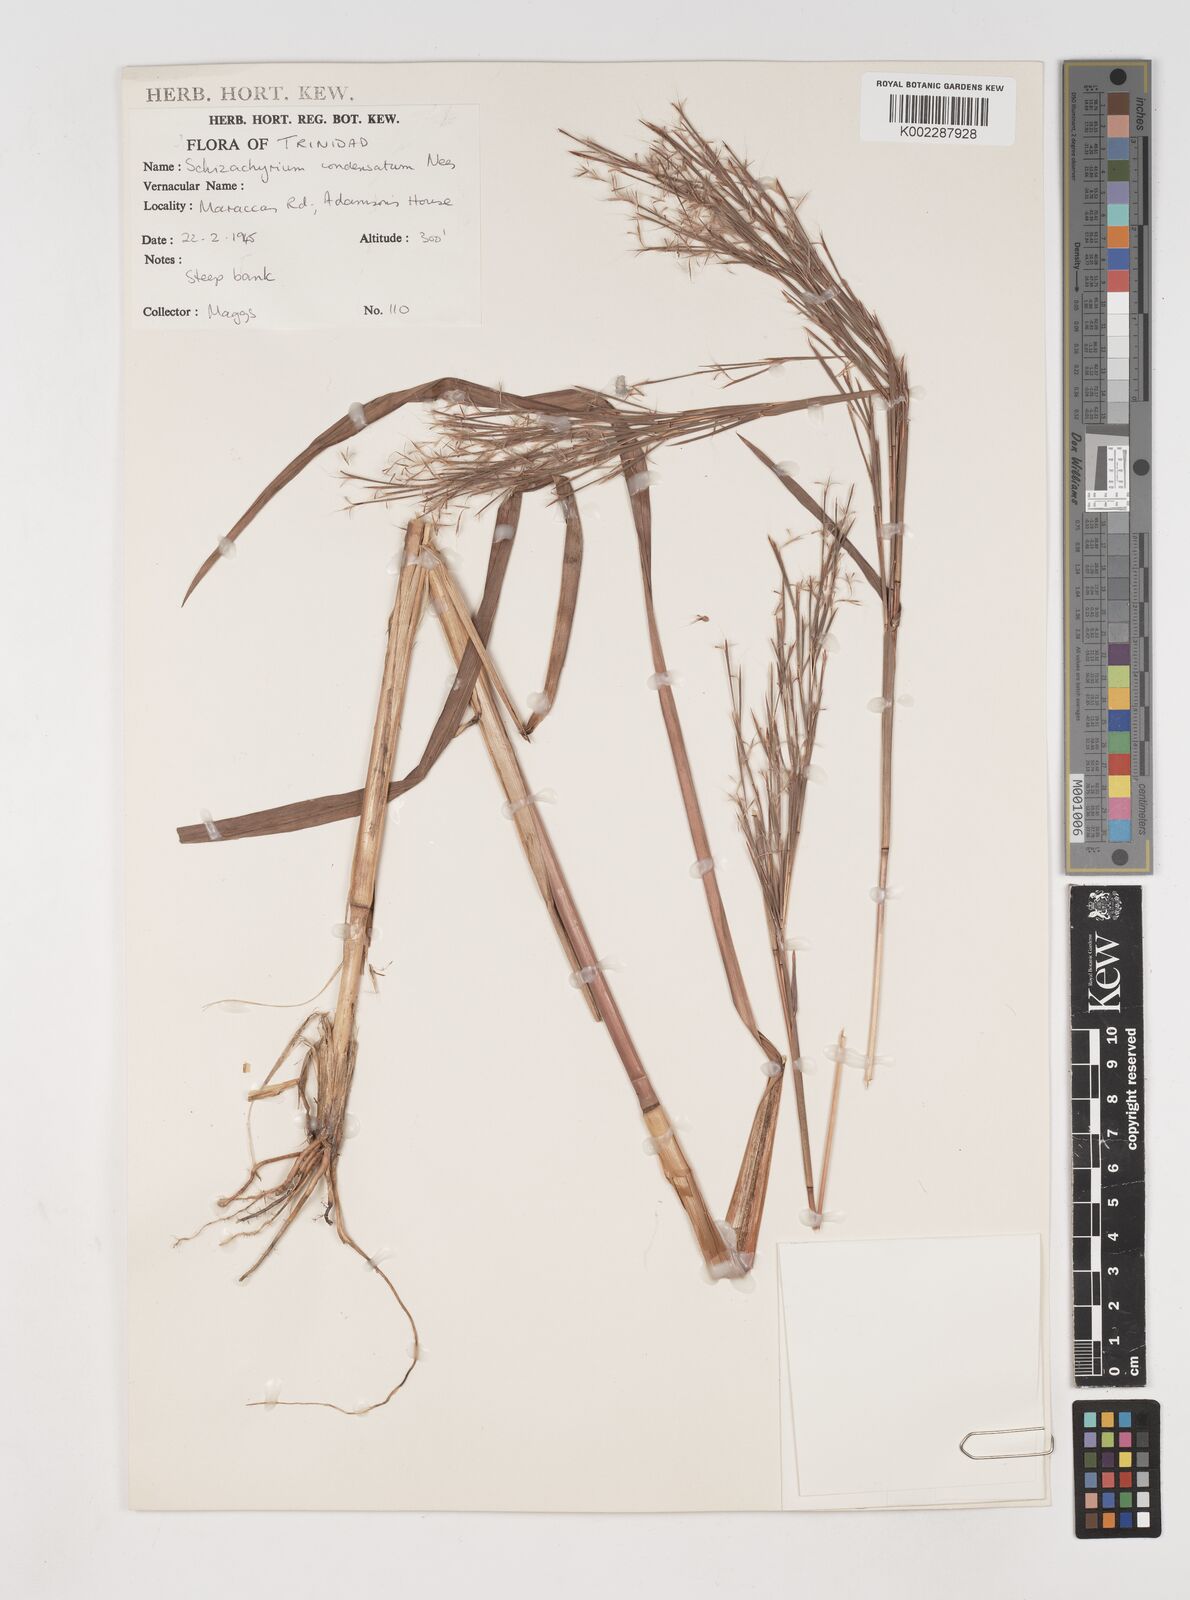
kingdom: Plantae
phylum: Tracheophyta
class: Liliopsida
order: Poales
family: Poaceae
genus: Schizachyrium
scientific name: Schizachyrium condensatum
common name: Bush beardgrass
